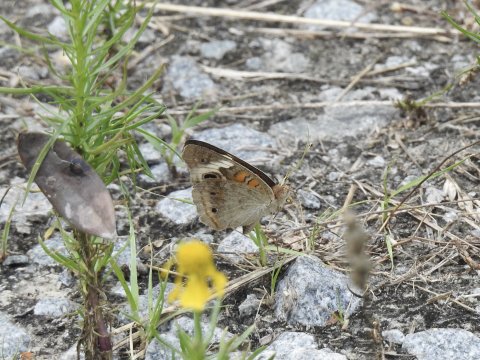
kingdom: Animalia
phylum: Arthropoda
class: Insecta
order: Lepidoptera
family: Nymphalidae
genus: Junonia
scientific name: Junonia coenia
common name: Common Buckeye
